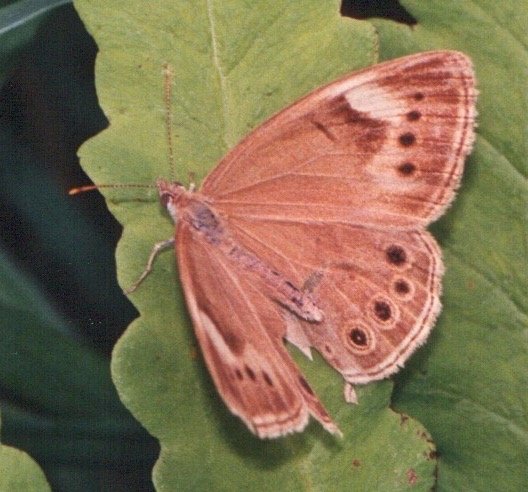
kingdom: Animalia
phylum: Arthropoda
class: Insecta
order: Lepidoptera
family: Nymphalidae
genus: Lethe
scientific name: Lethe eurydice
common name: Eyed Brown
